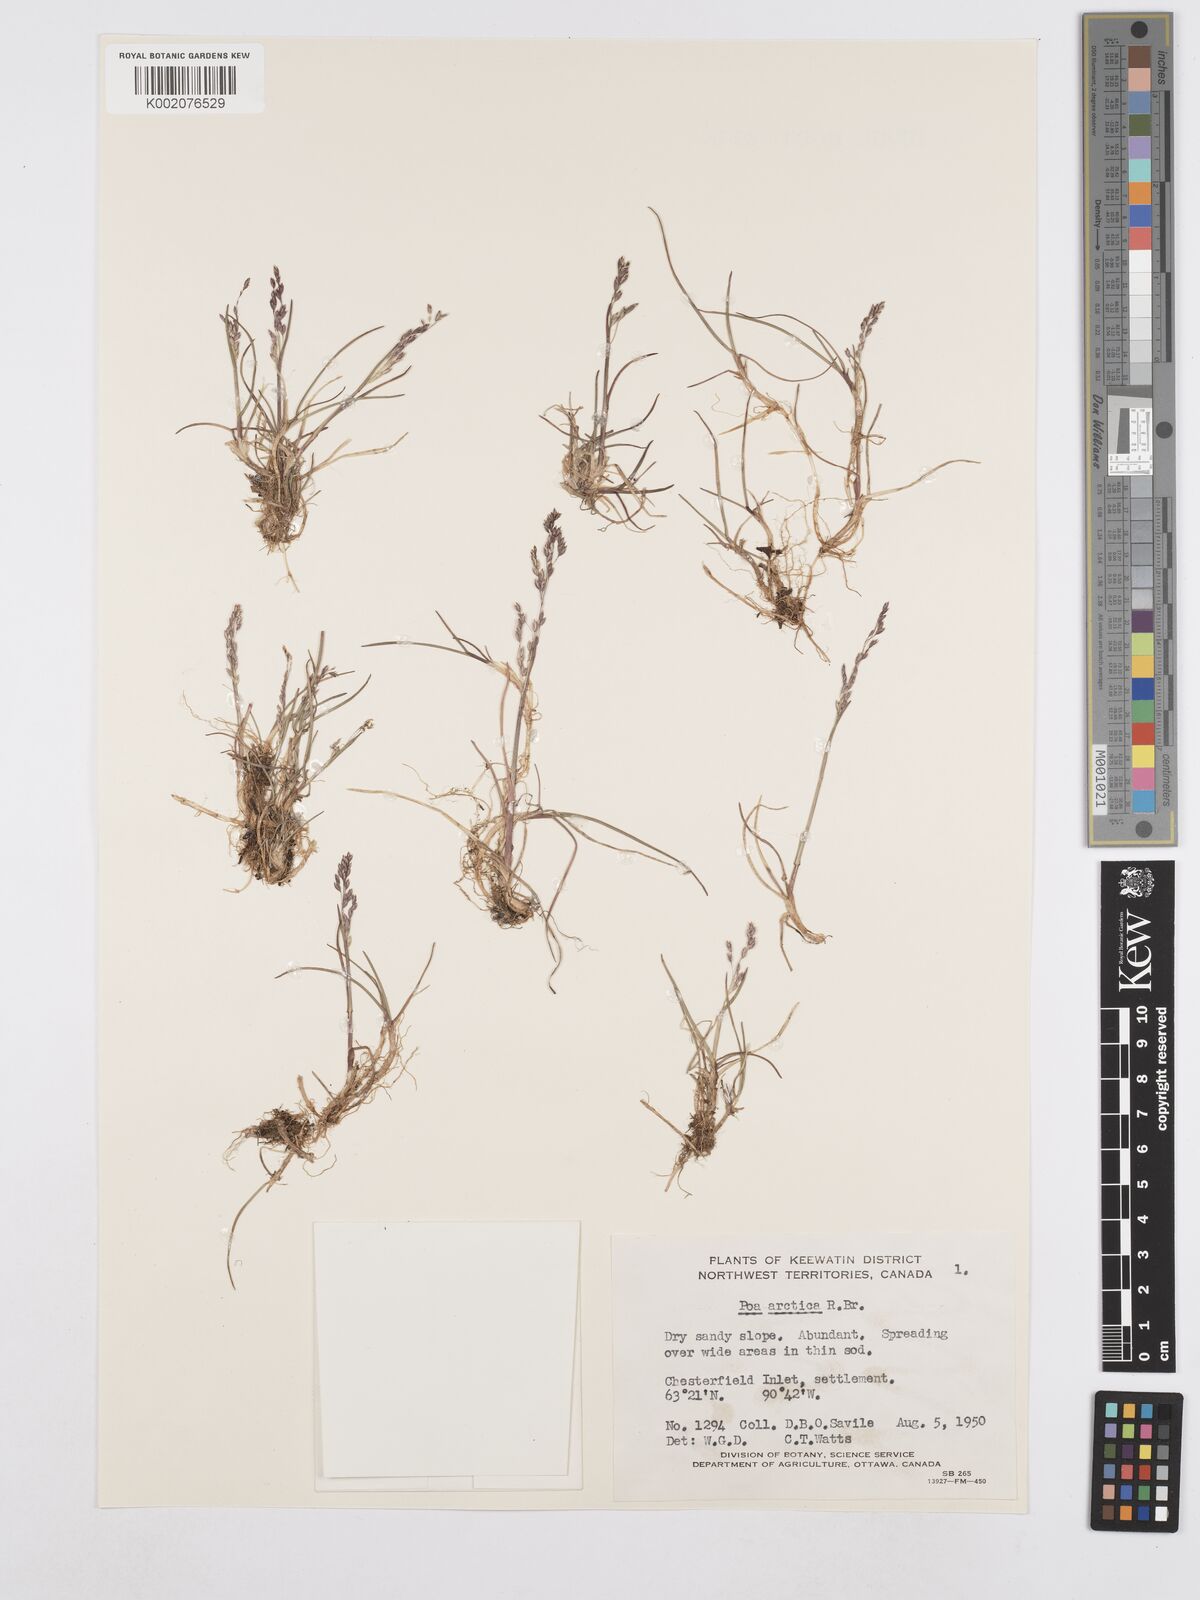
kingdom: Plantae
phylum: Tracheophyta
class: Liliopsida
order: Poales
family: Poaceae
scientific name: Poaceae
